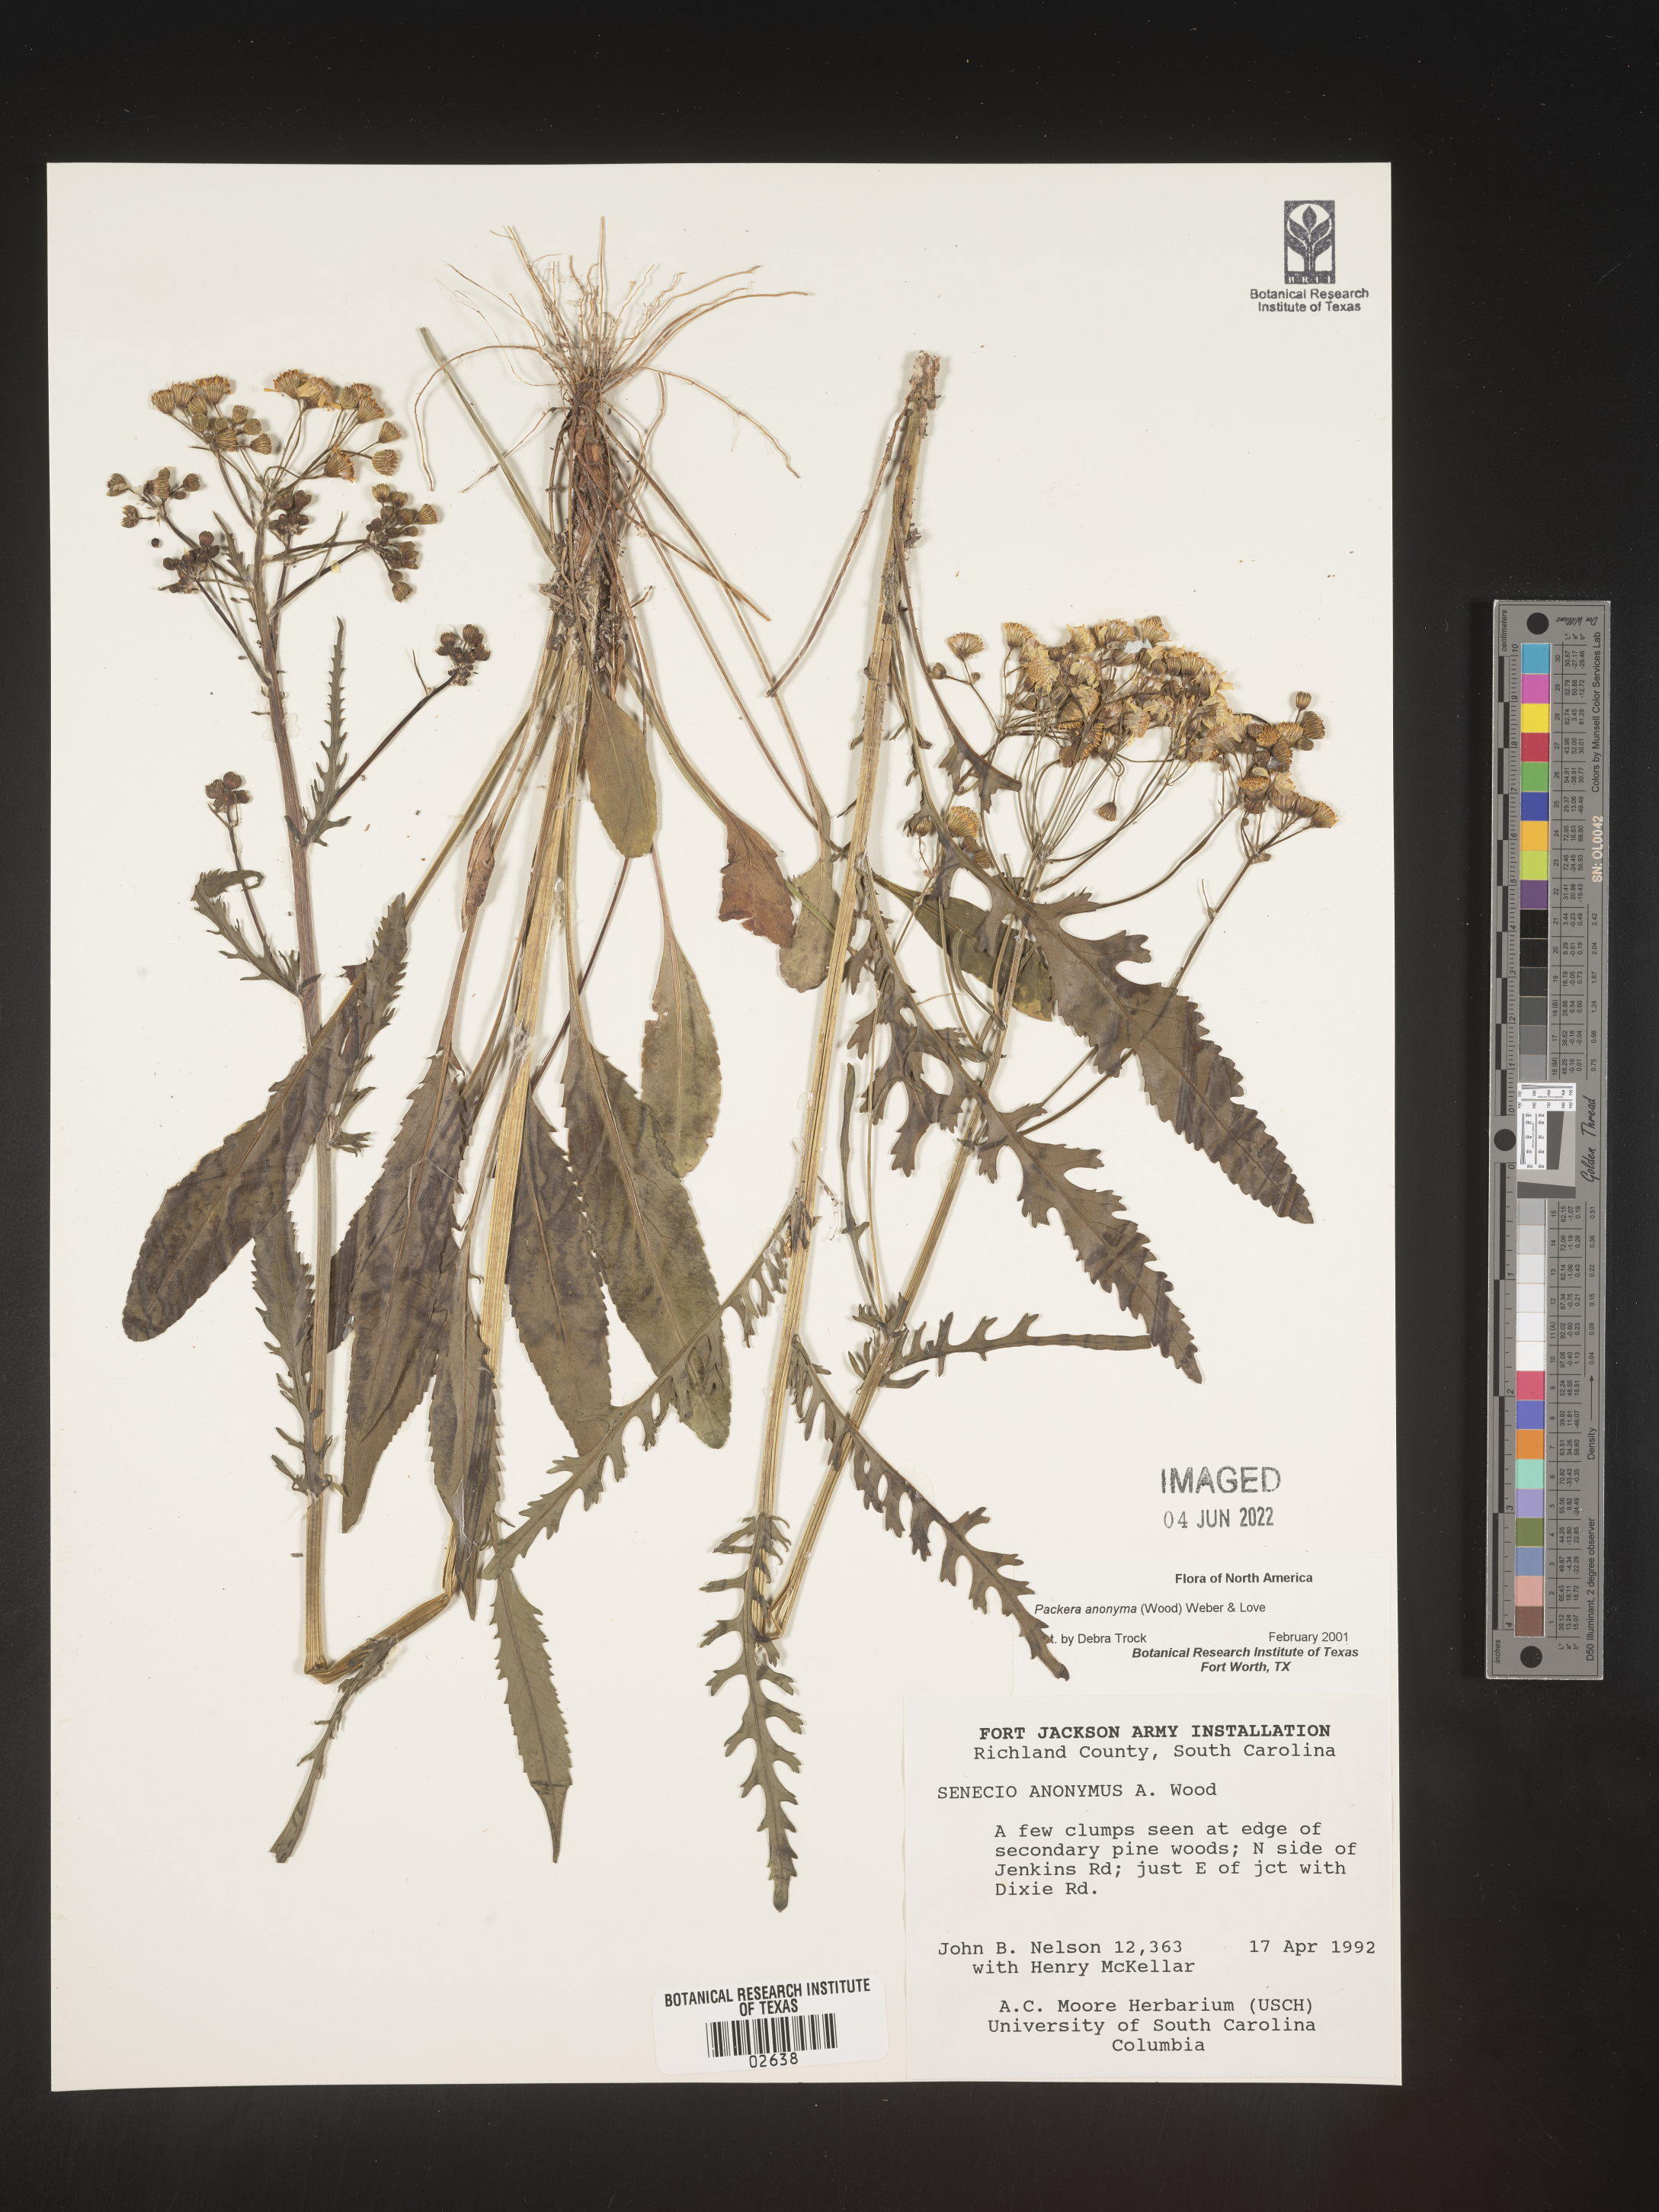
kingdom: Plantae
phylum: Tracheophyta
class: Magnoliopsida
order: Asterales
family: Asteraceae
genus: Packera
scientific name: Packera anonyma
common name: Small ragwort
